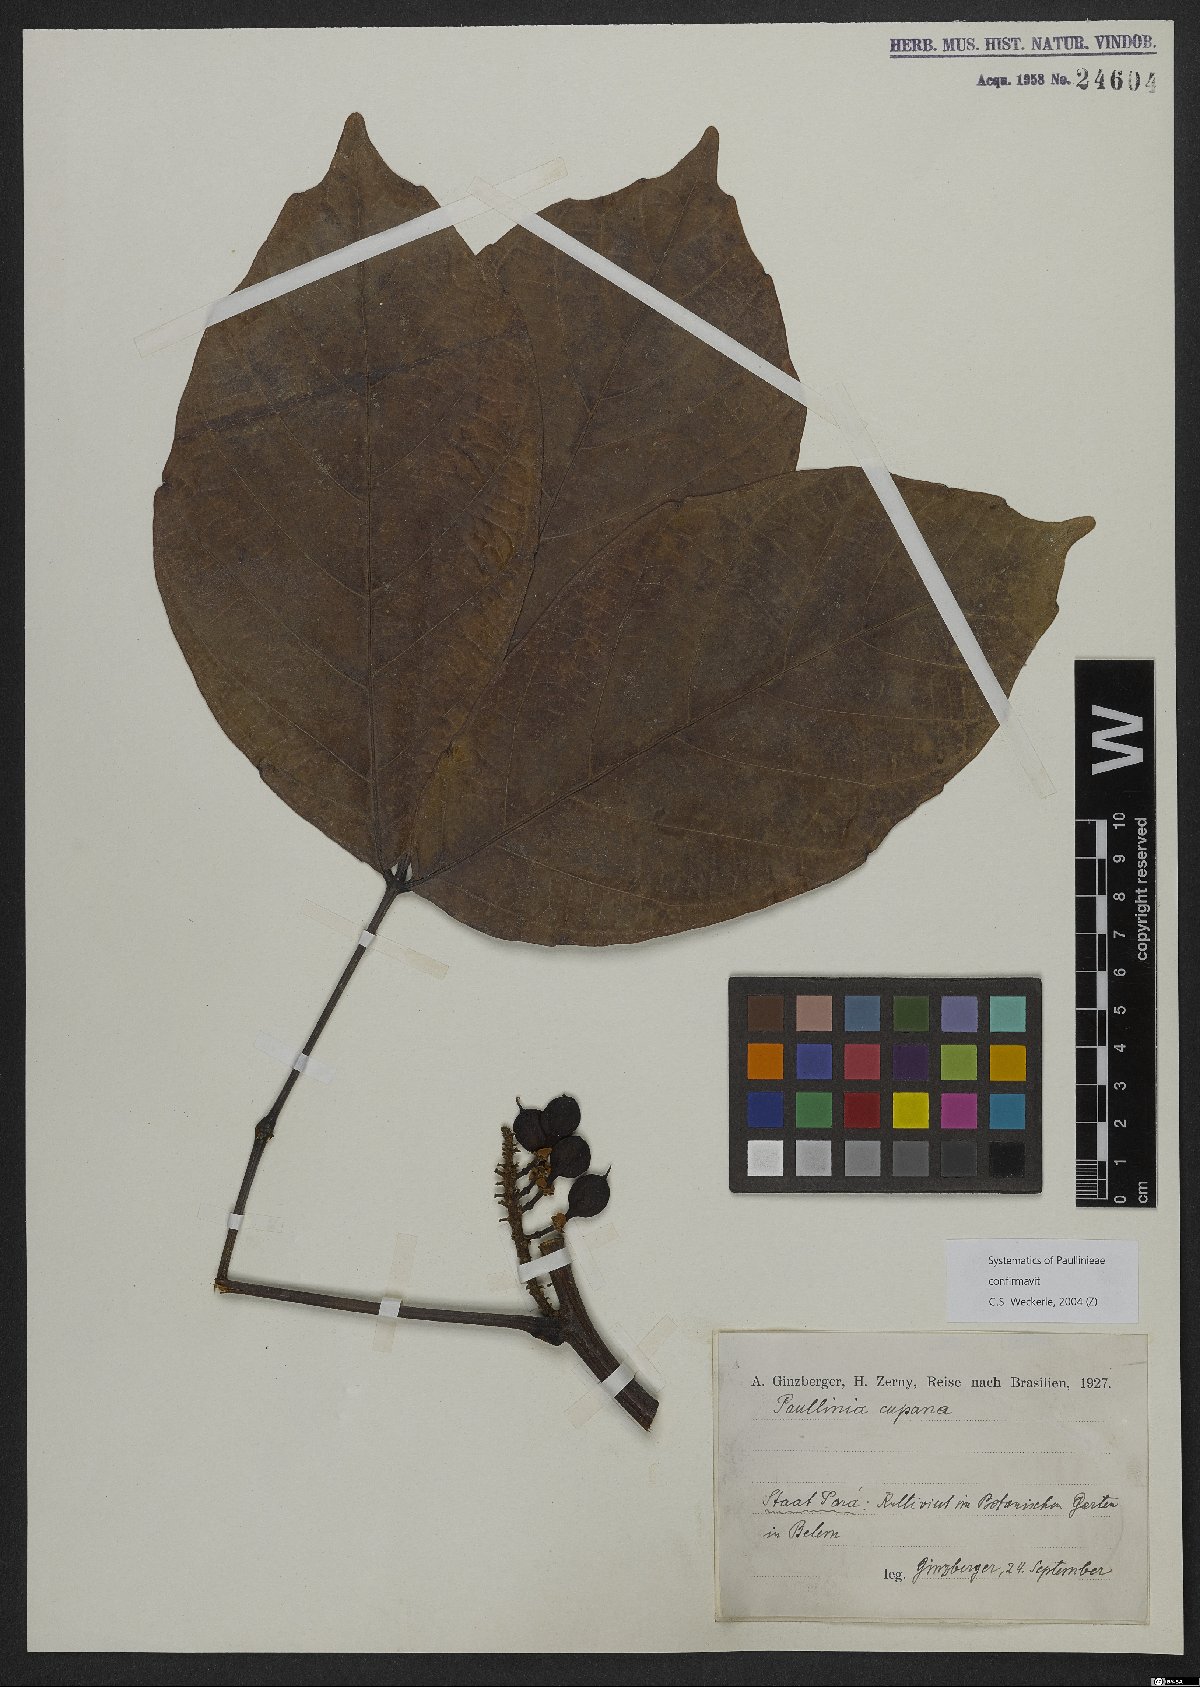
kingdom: Plantae
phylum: Tracheophyta
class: Magnoliopsida
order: Sapindales
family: Sapindaceae
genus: Paullinia
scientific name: Paullinia cupana
